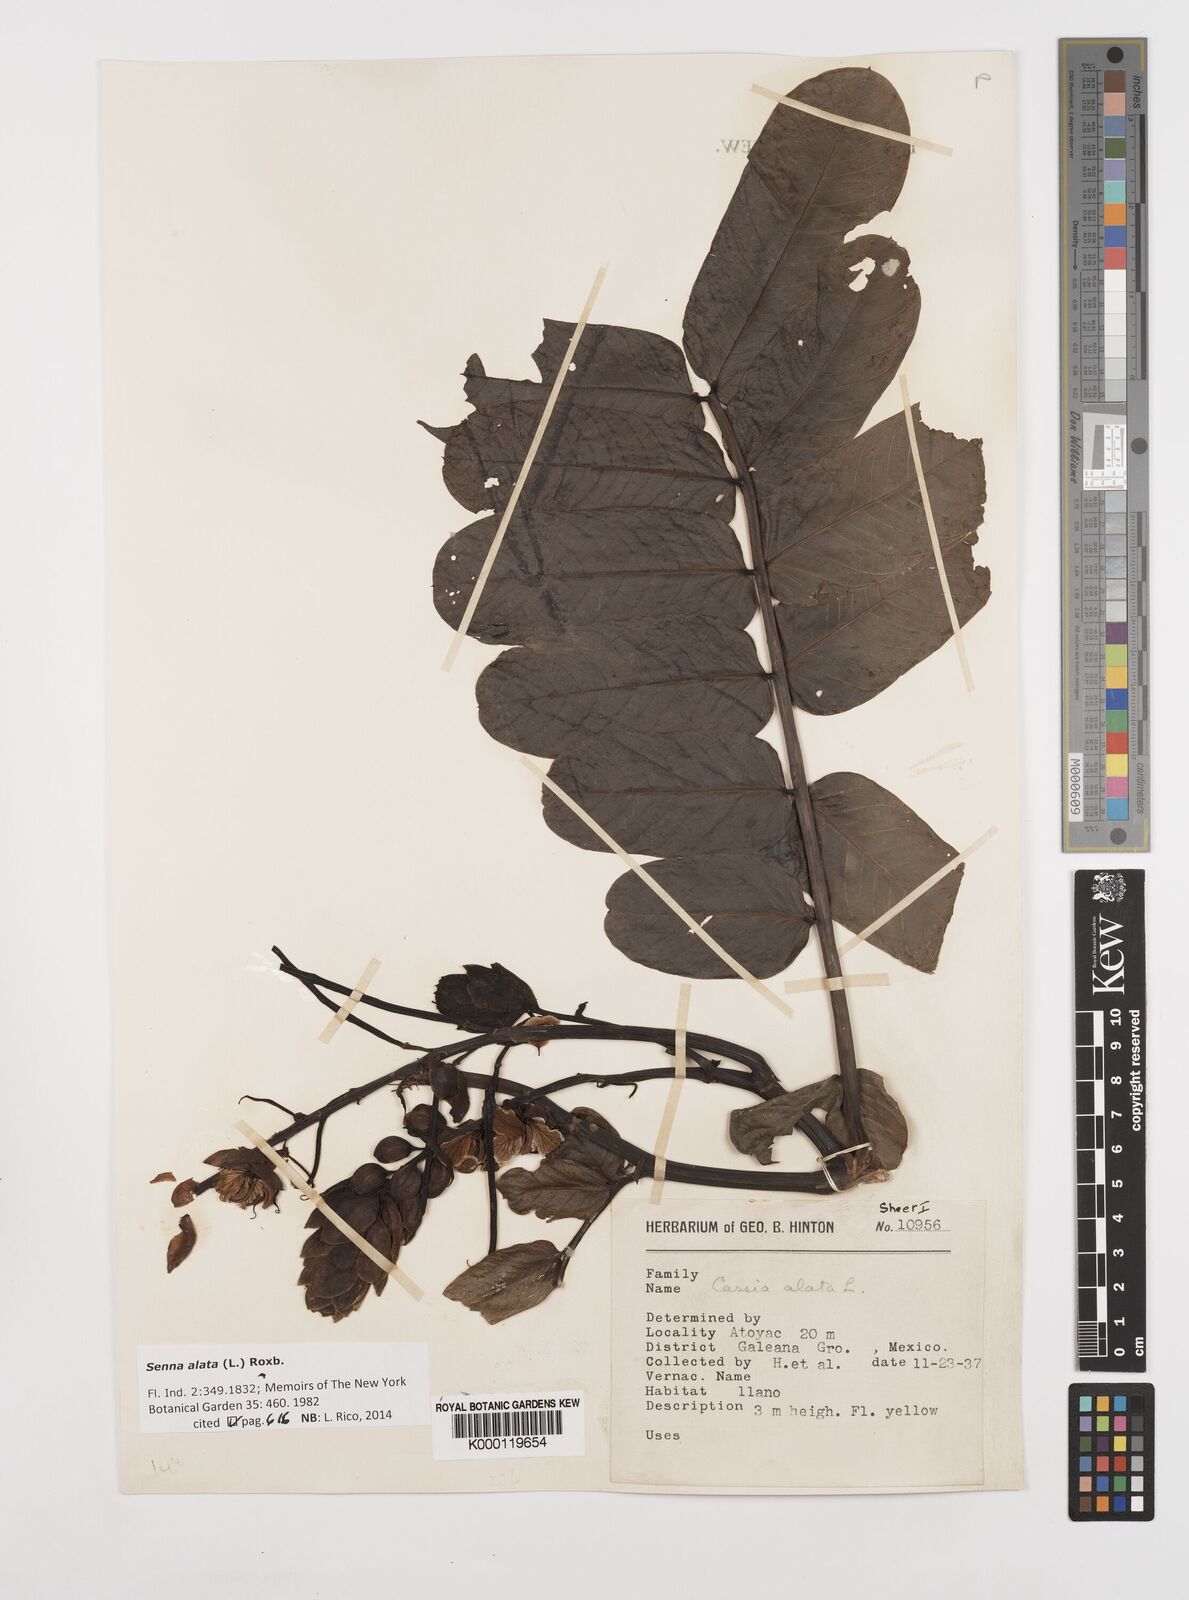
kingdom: Plantae
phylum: Tracheophyta
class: Magnoliopsida
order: Fabales
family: Fabaceae
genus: Senna
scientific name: Senna alata
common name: Emperor's candlesticks
